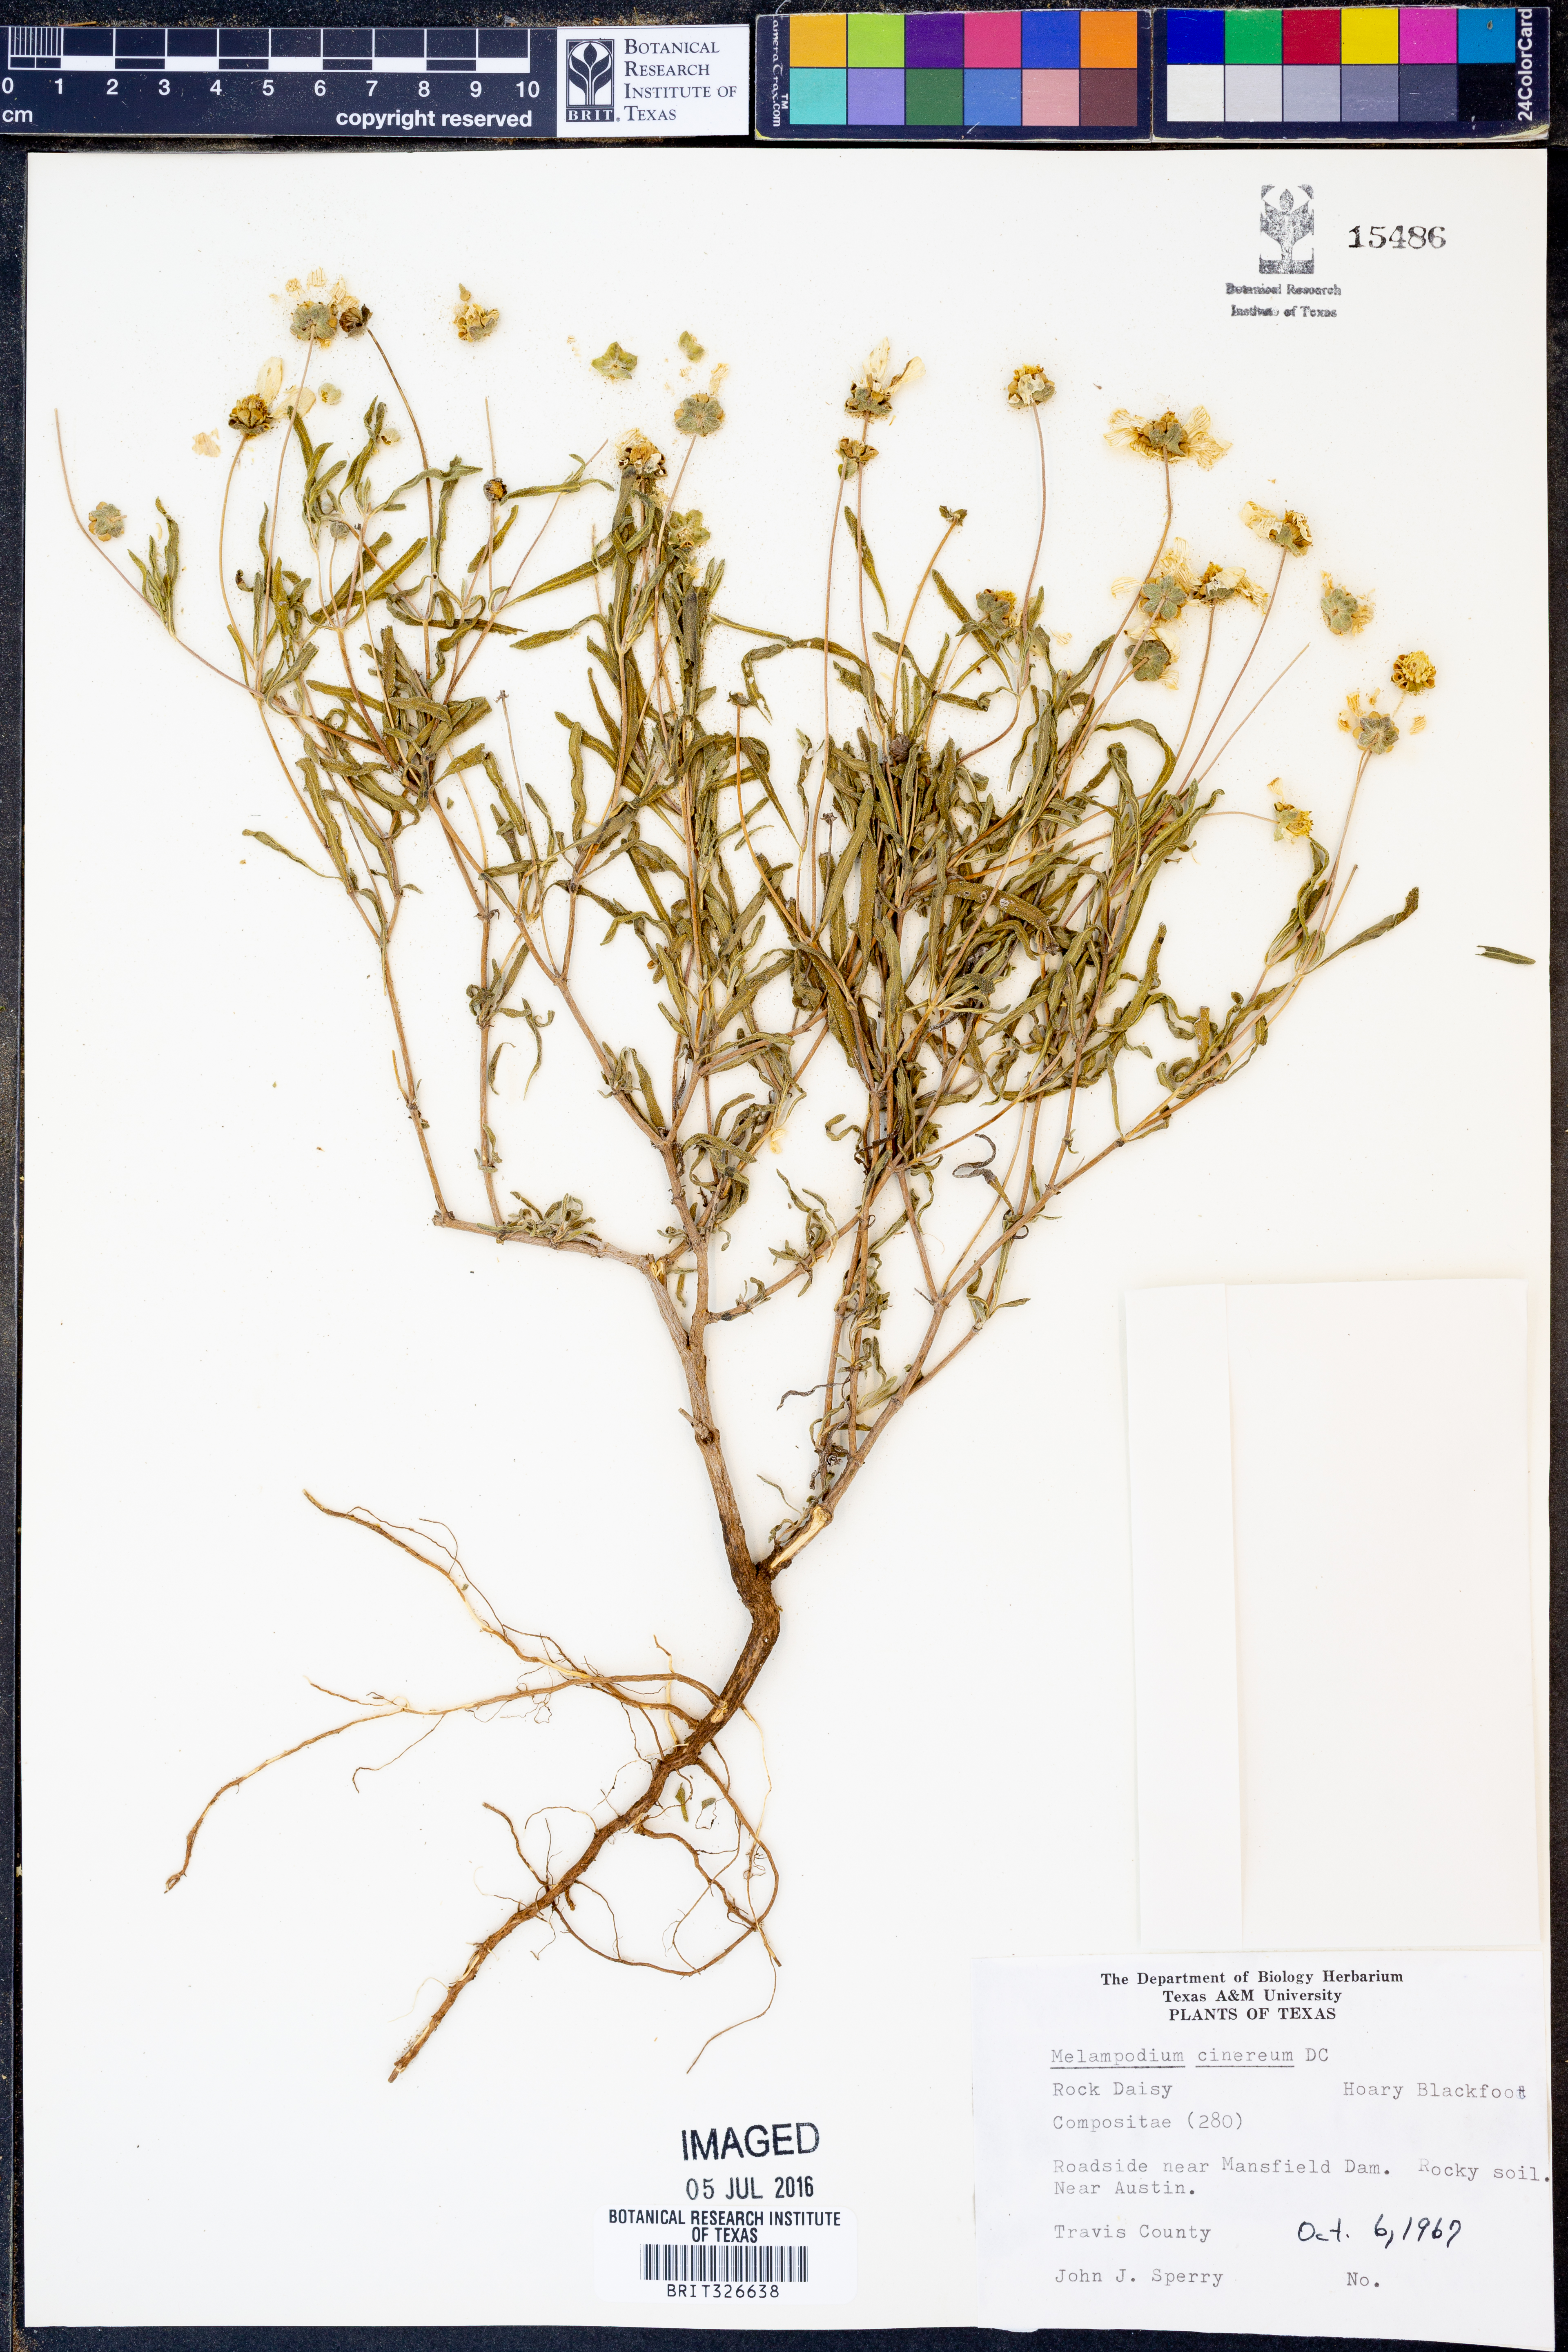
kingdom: Plantae
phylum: Tracheophyta
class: Magnoliopsida
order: Asterales
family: Asteraceae
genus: Melampodium
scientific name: Melampodium cinereum
